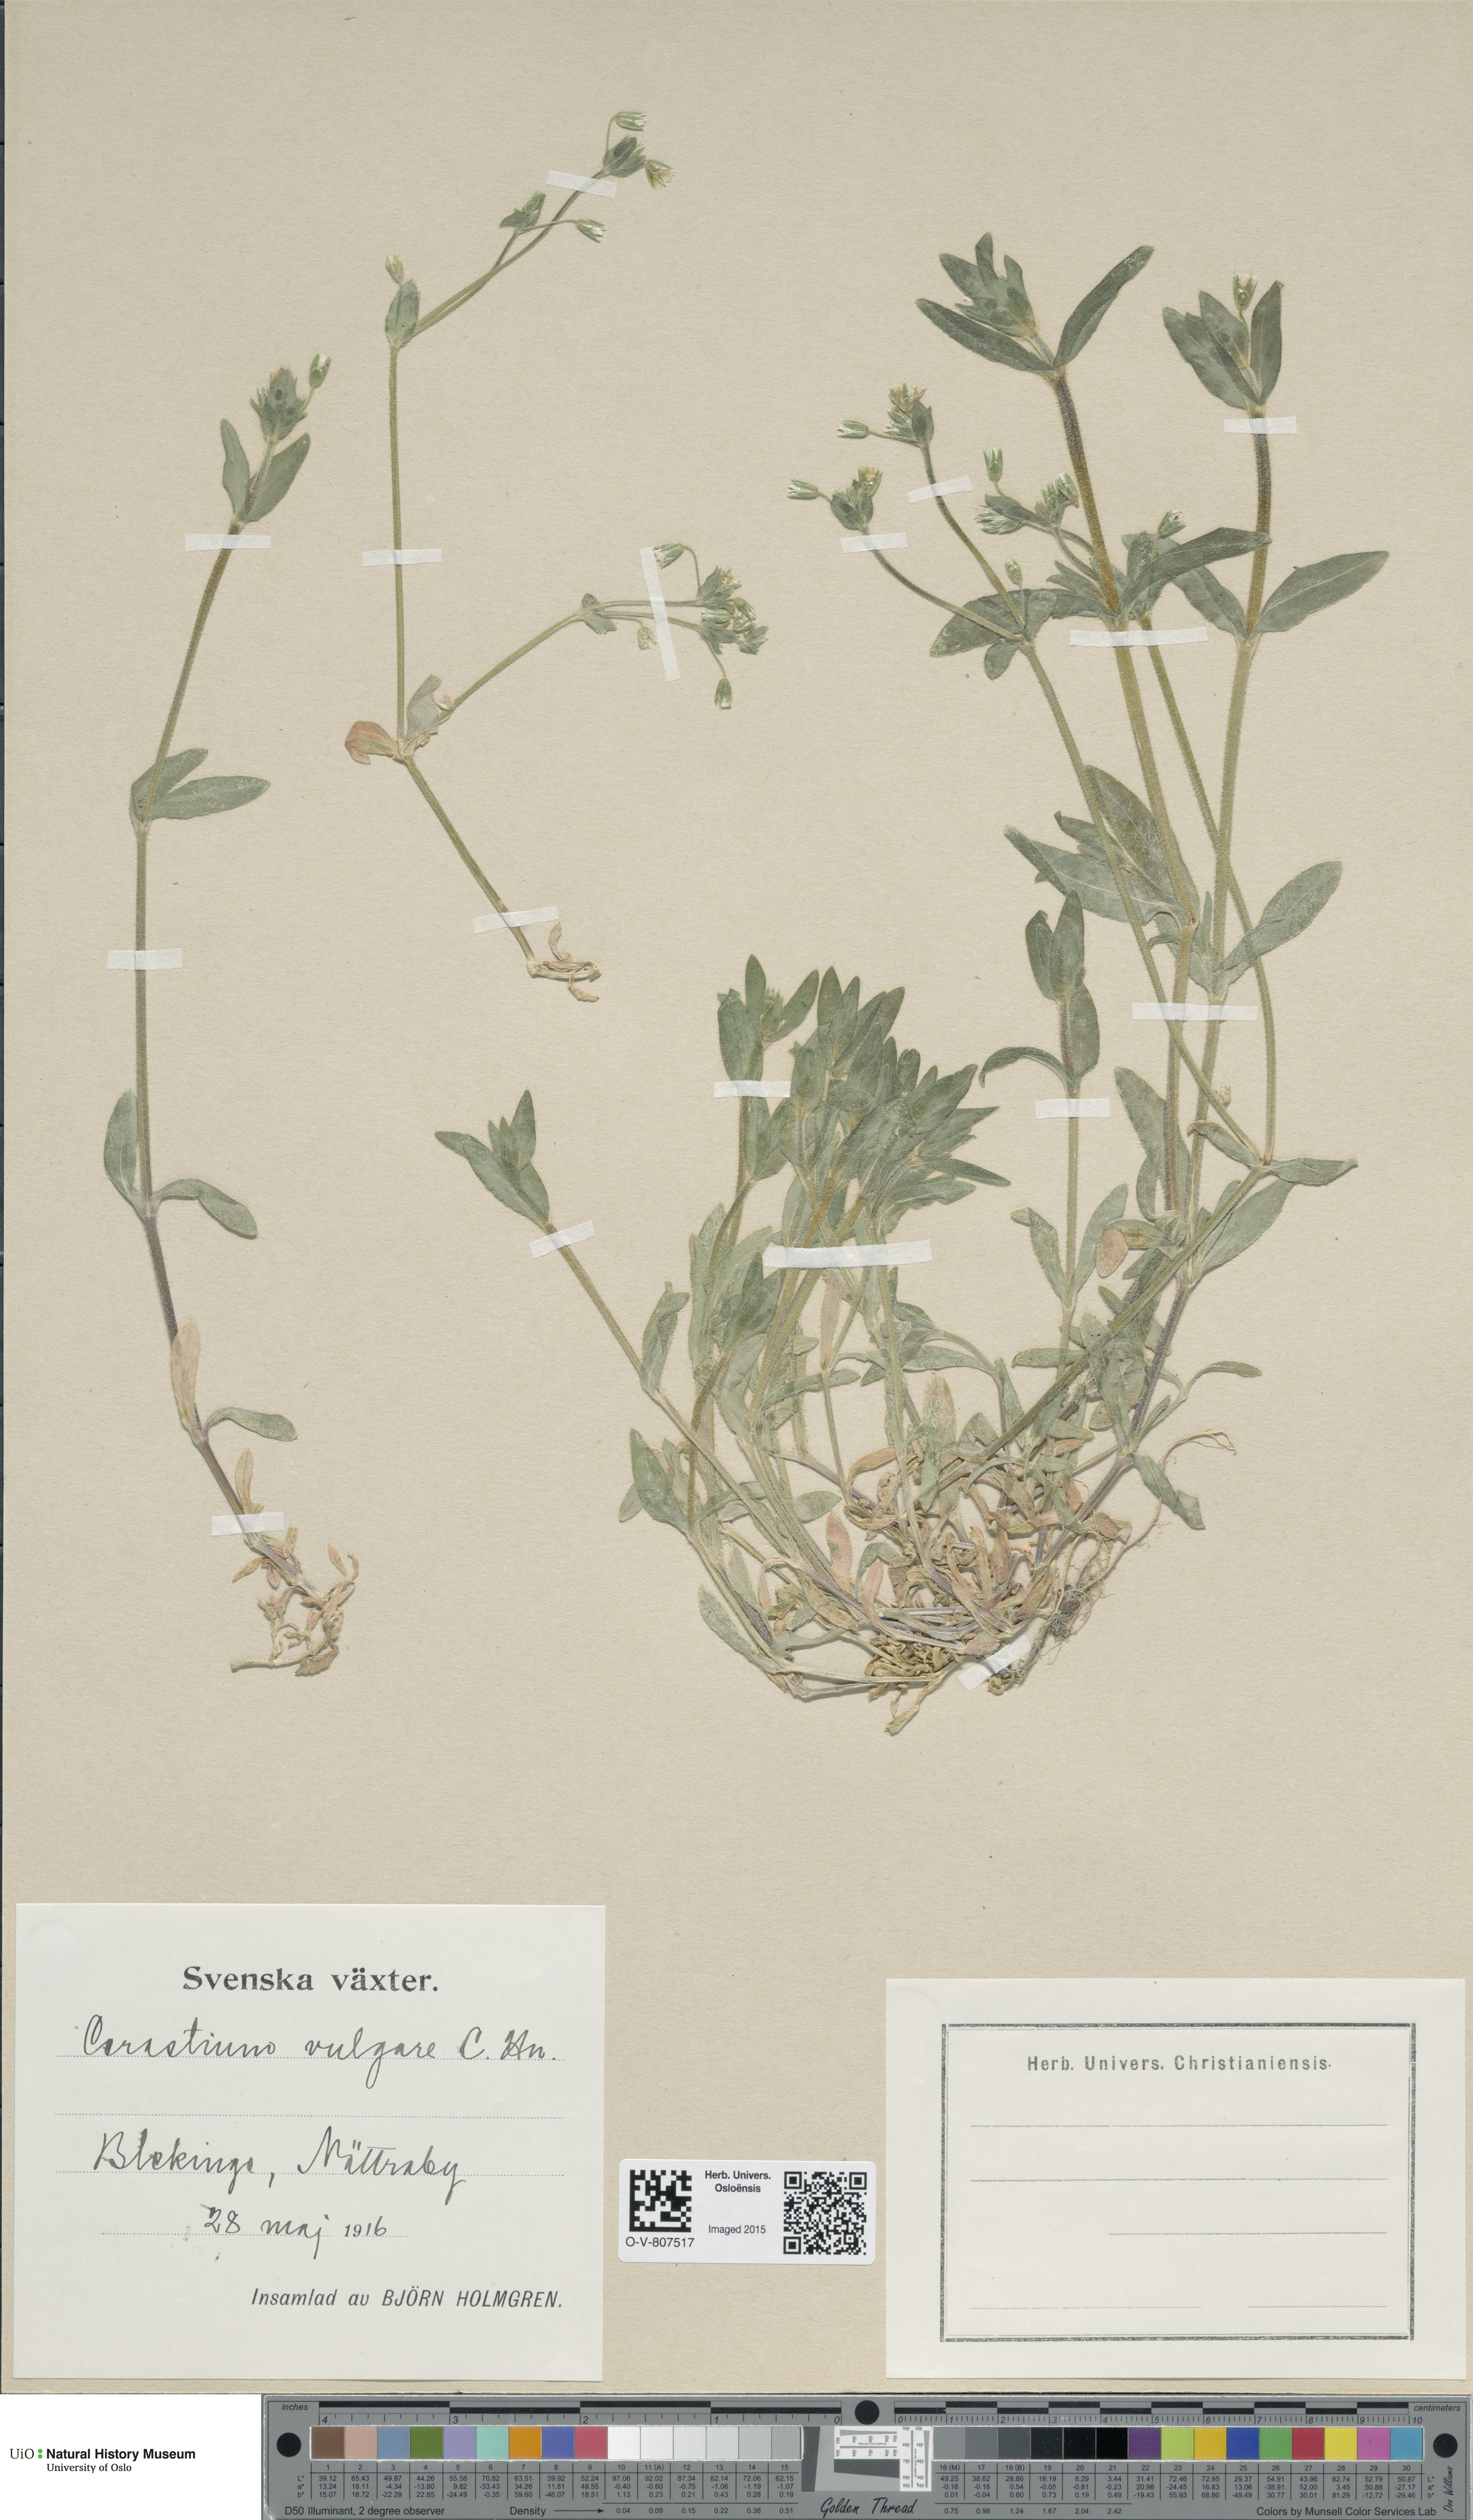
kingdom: Plantae
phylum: Tracheophyta
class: Magnoliopsida
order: Caryophyllales
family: Caryophyllaceae
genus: Cerastium
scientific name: Cerastium holosteoides
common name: Big chickweed
